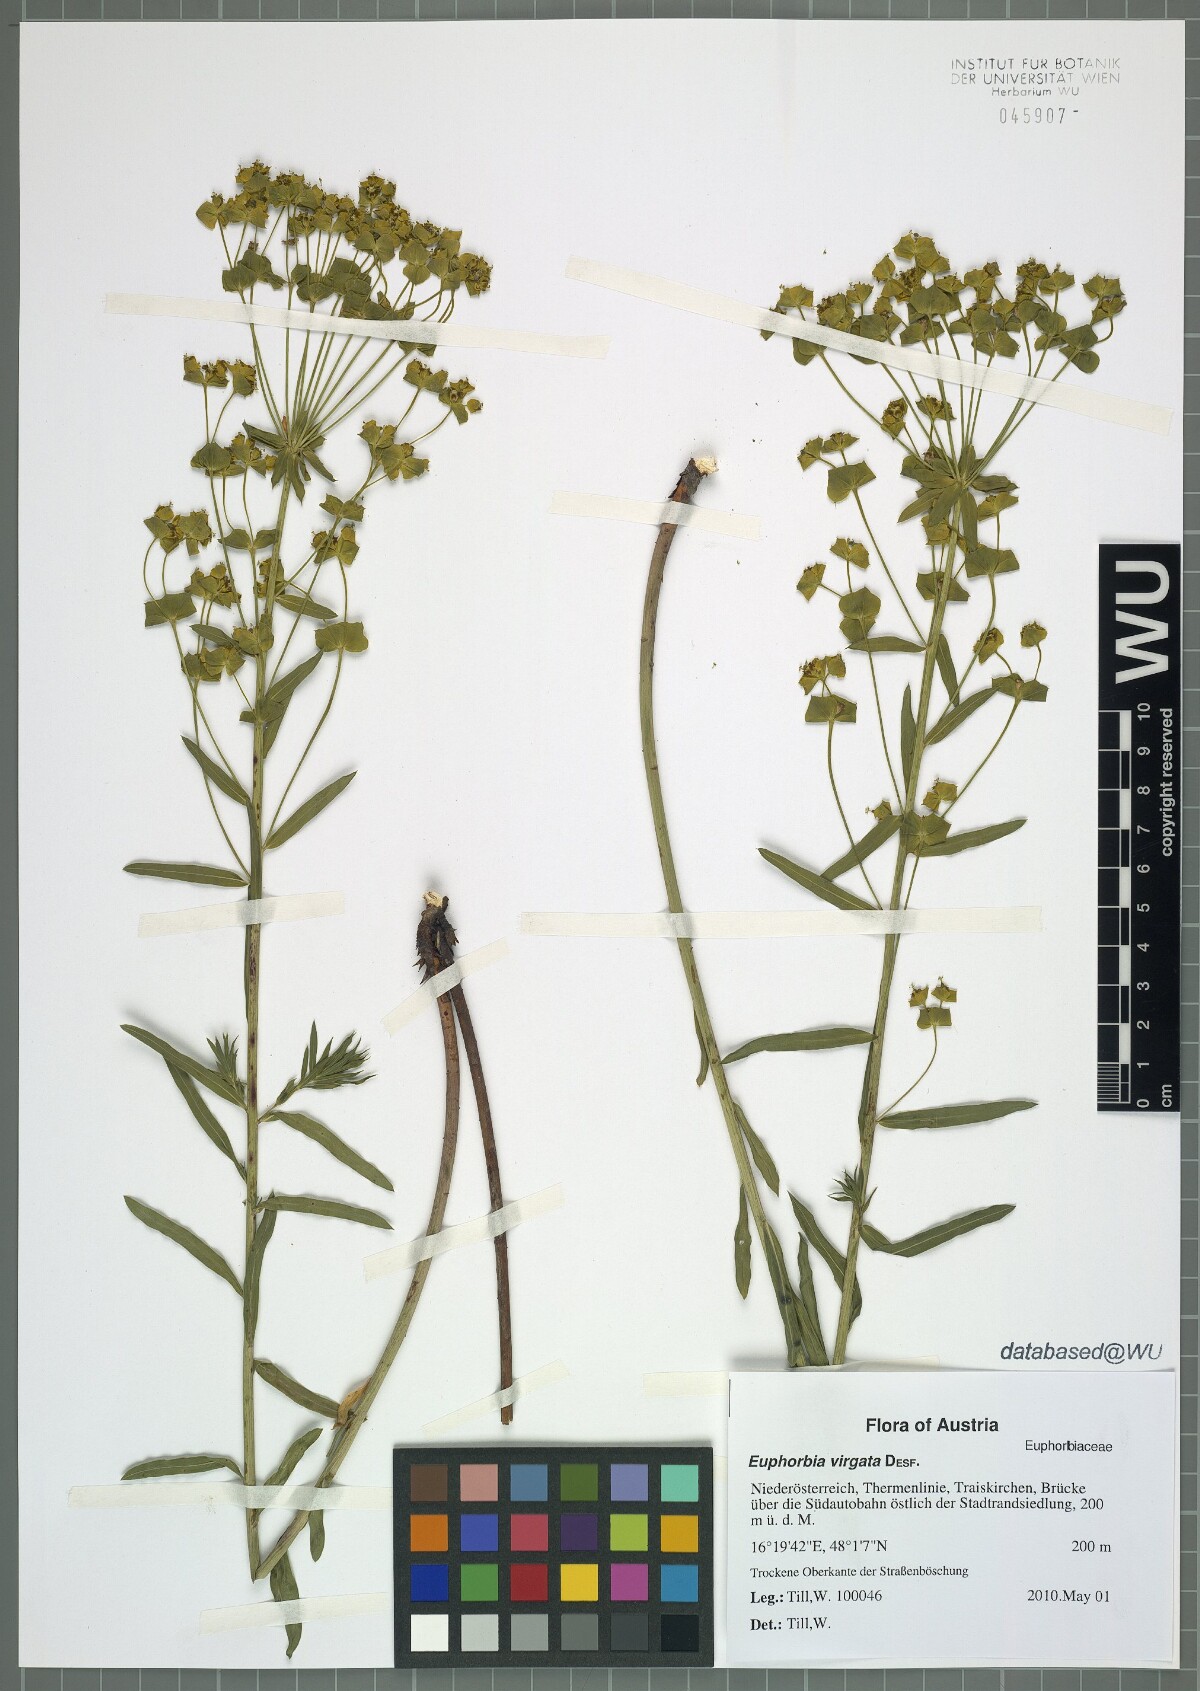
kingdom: Plantae
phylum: Tracheophyta
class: Magnoliopsida
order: Malpighiales
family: Euphorbiaceae
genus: Euphorbia
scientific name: Euphorbia virgata
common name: Leafy spurge
